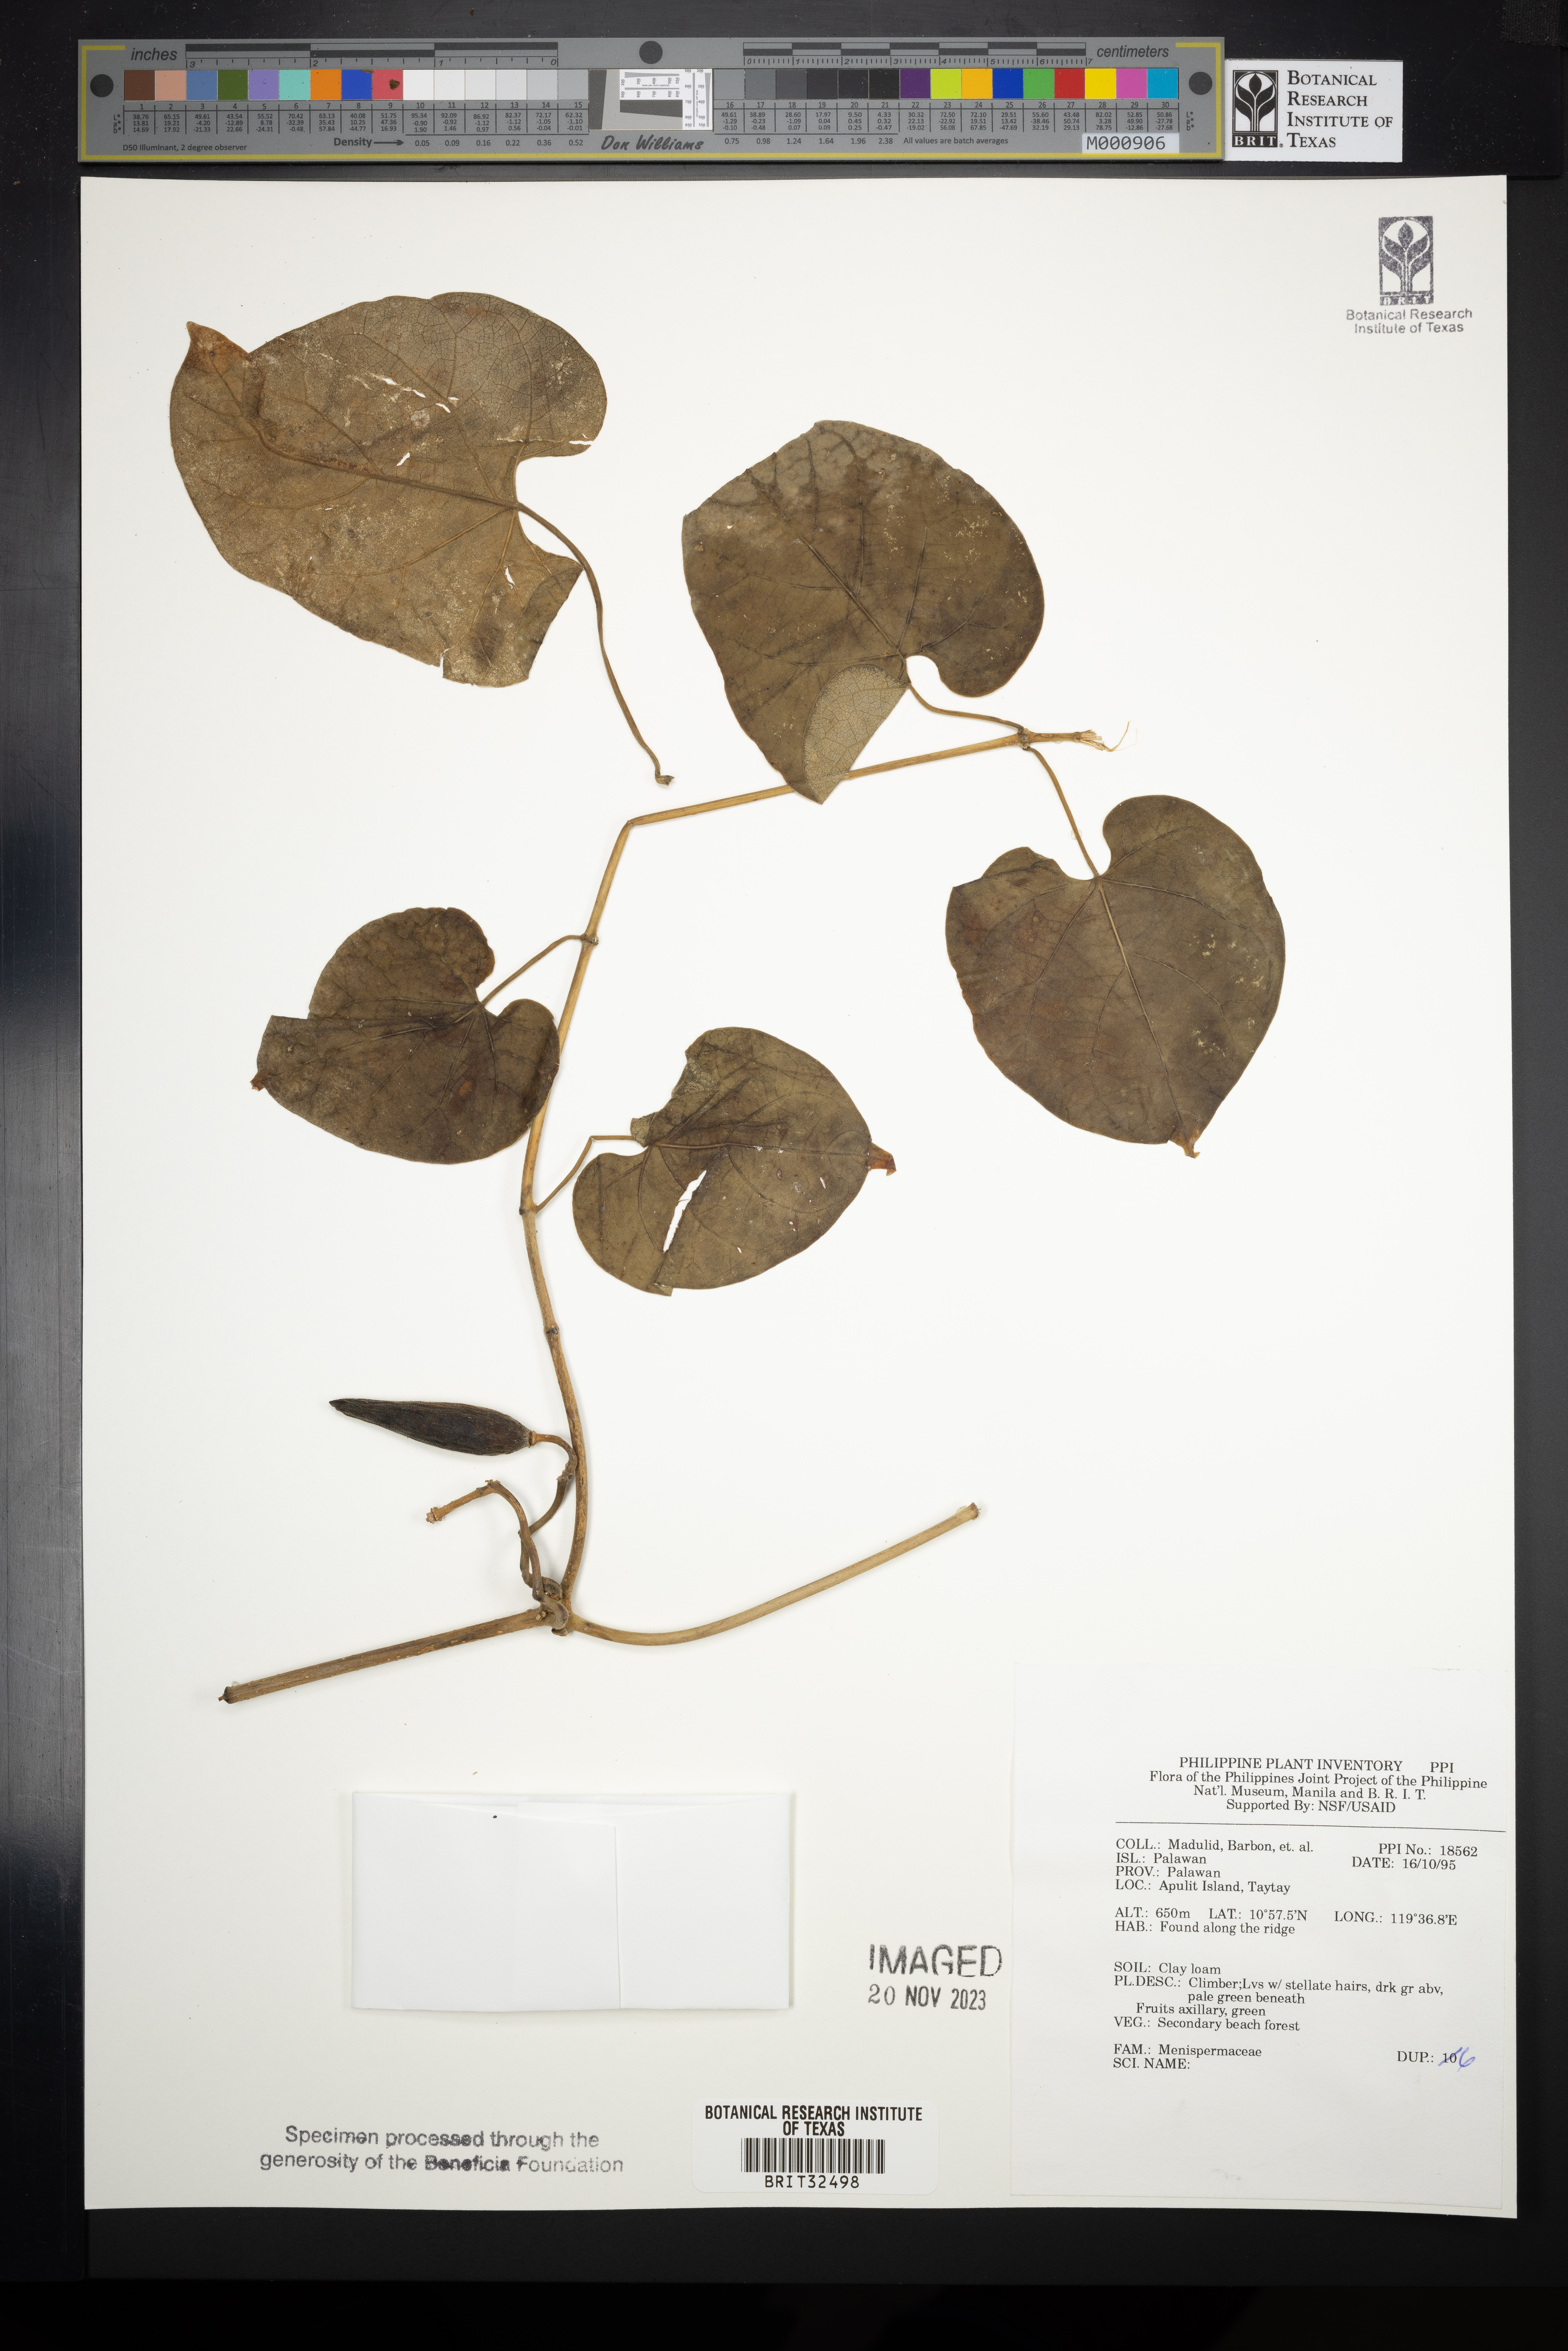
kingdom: Plantae
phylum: Tracheophyta
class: Magnoliopsida
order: Ranunculales
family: Menispermaceae
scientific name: Menispermaceae
